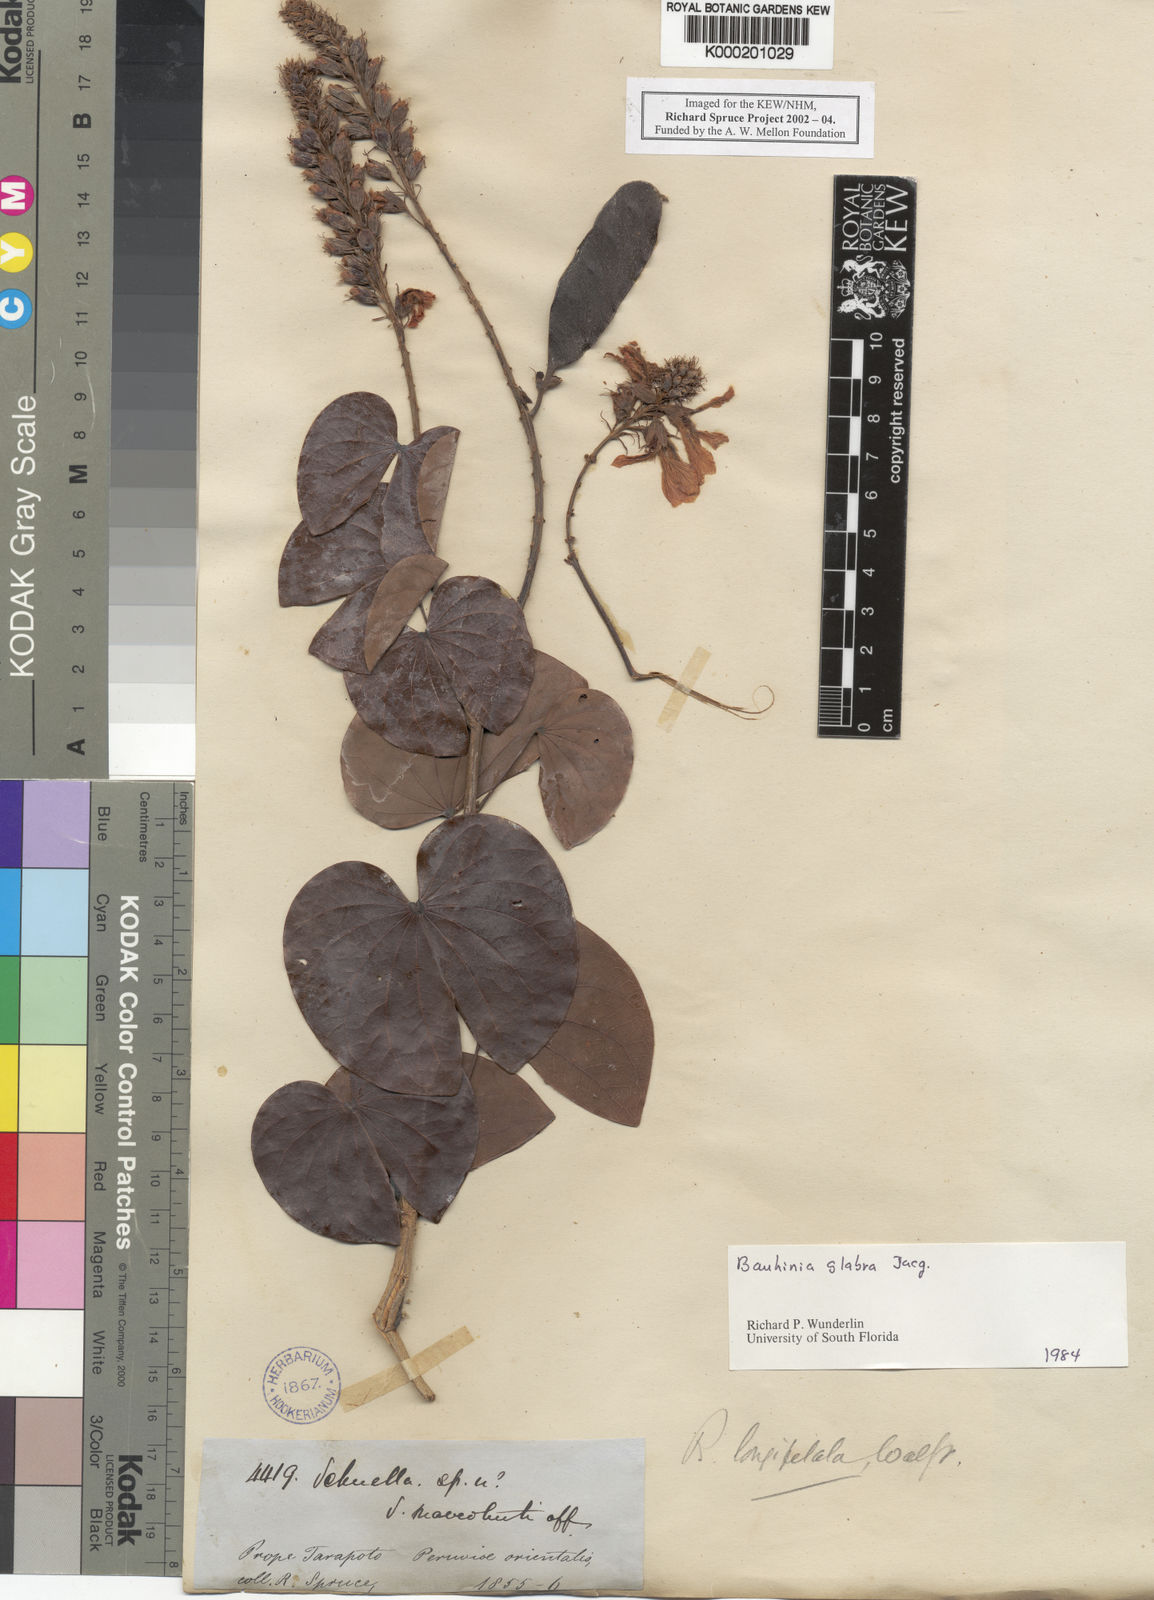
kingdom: Plantae
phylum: Tracheophyta
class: Magnoliopsida
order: Fabales
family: Fabaceae
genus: Schnella
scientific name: Schnella glabra
